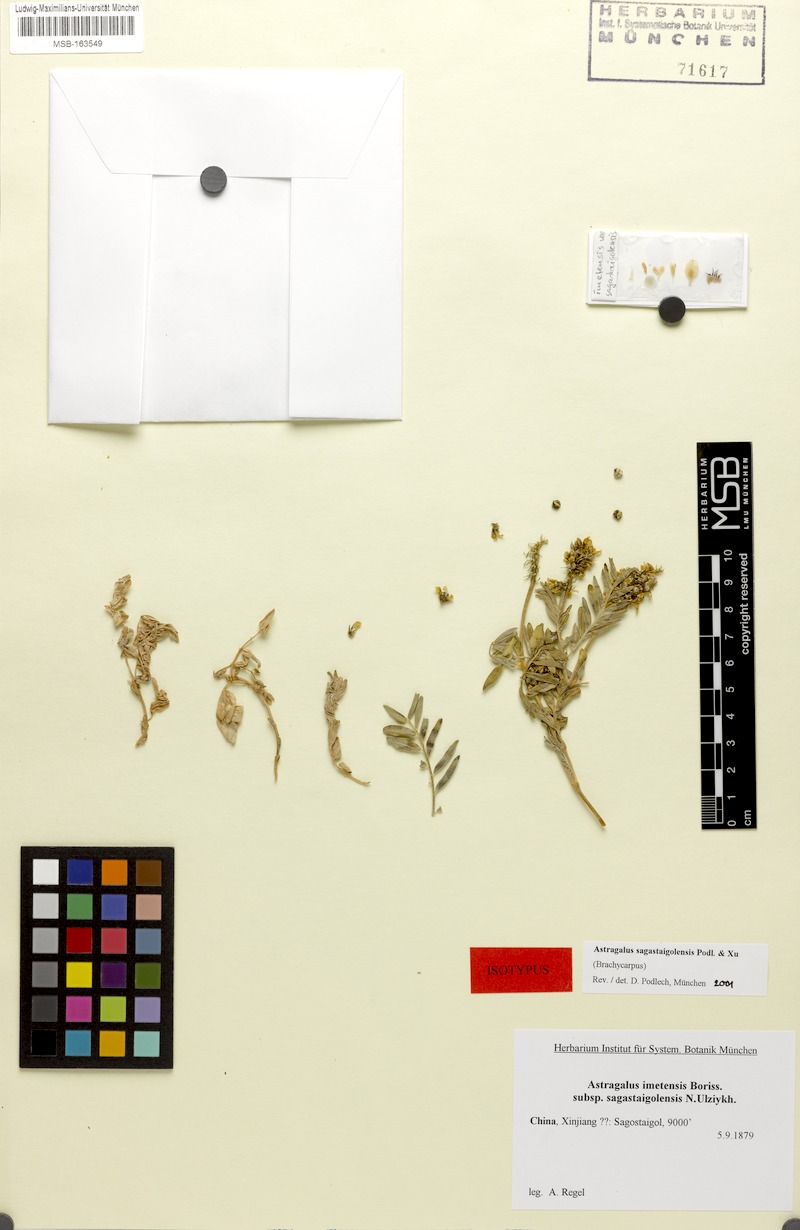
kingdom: Plantae
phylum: Tracheophyta
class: Magnoliopsida
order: Fabales
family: Fabaceae
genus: Astragalus
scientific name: Astragalus sagastaigolensis
